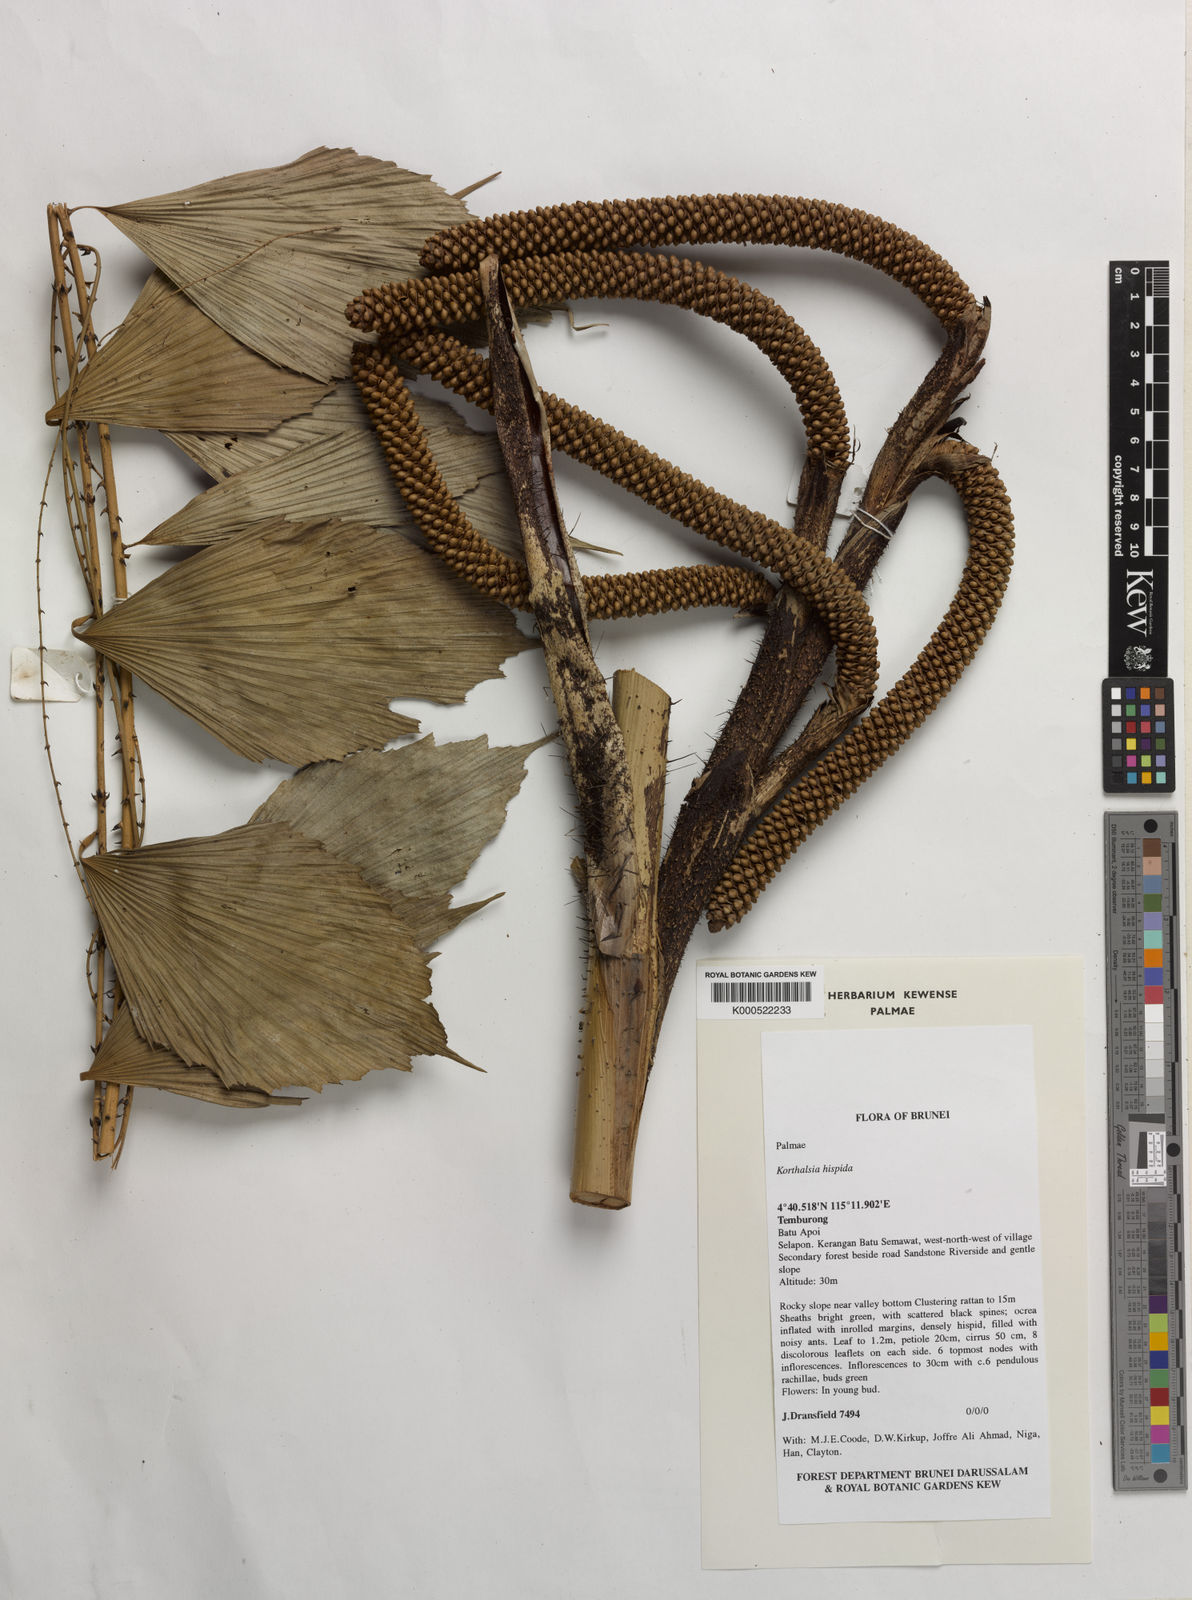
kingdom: Plantae
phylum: Tracheophyta
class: Liliopsida
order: Arecales
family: Arecaceae
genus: Korthalsia
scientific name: Korthalsia hispida
